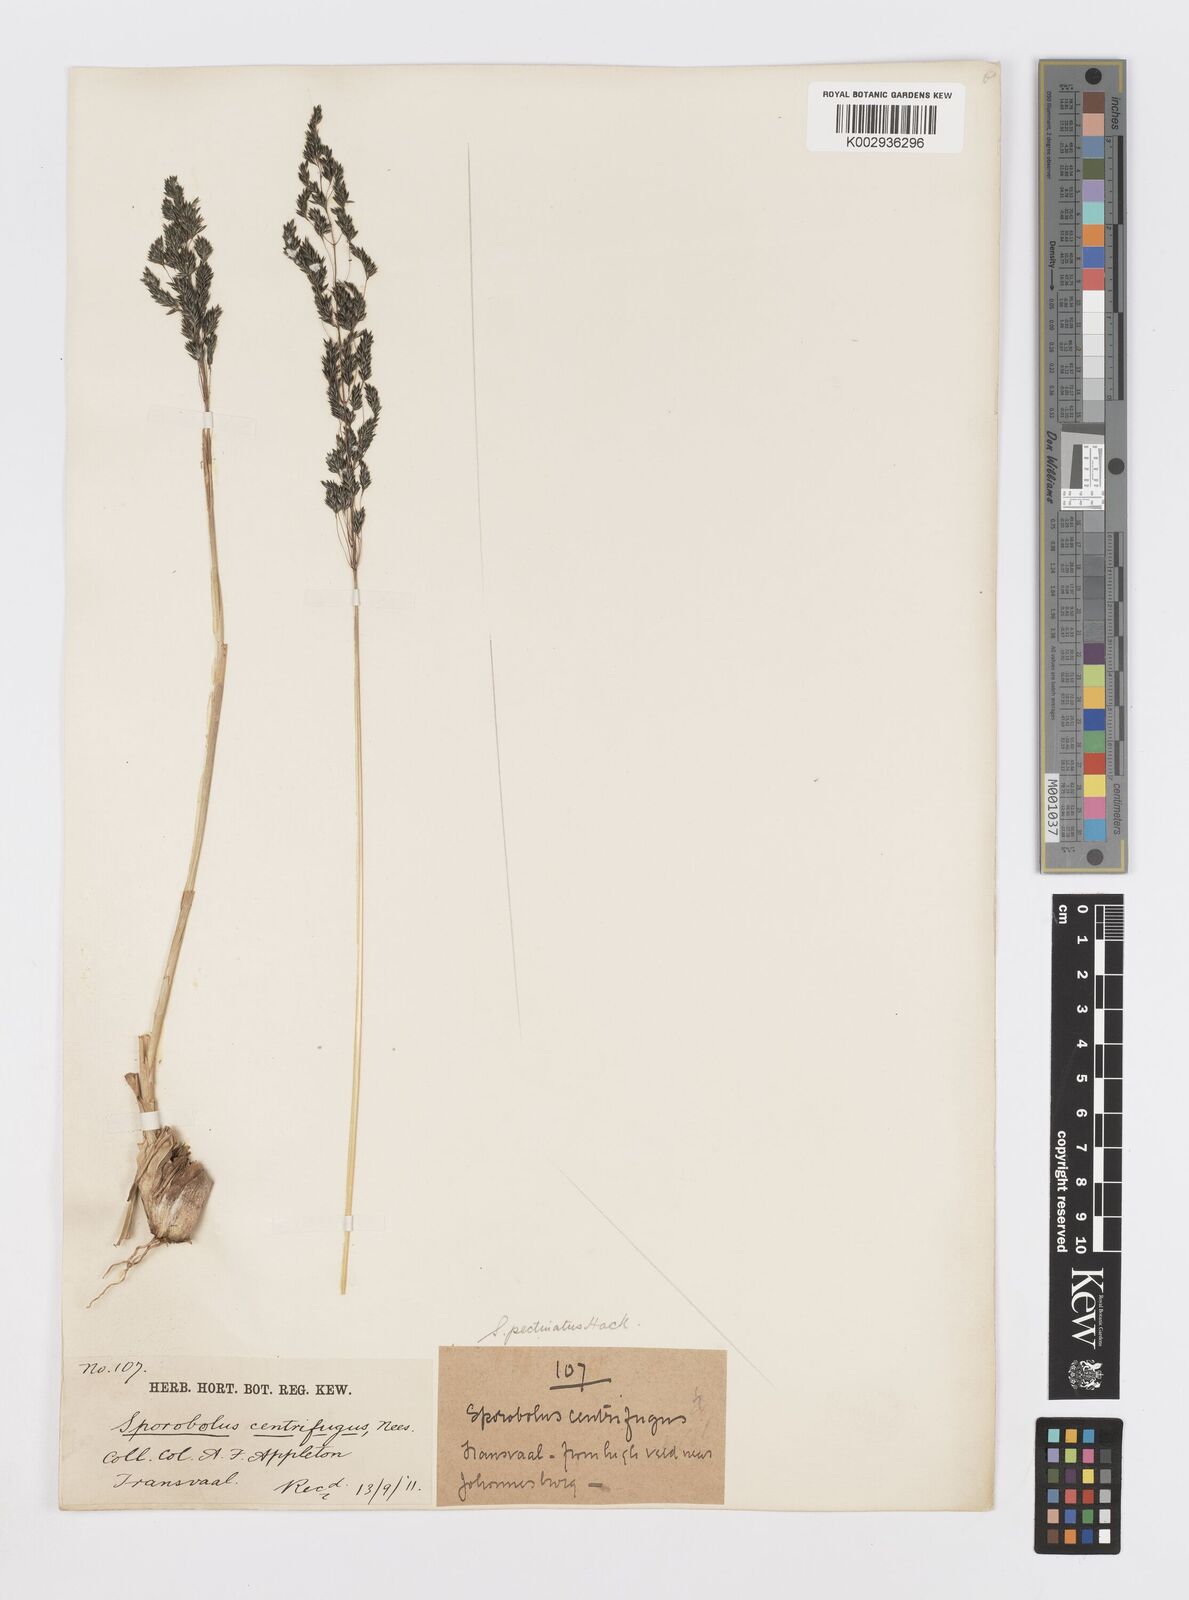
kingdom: Plantae
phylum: Tracheophyta
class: Liliopsida
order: Poales
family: Poaceae
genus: Sporobolus
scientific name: Sporobolus pectinatus
